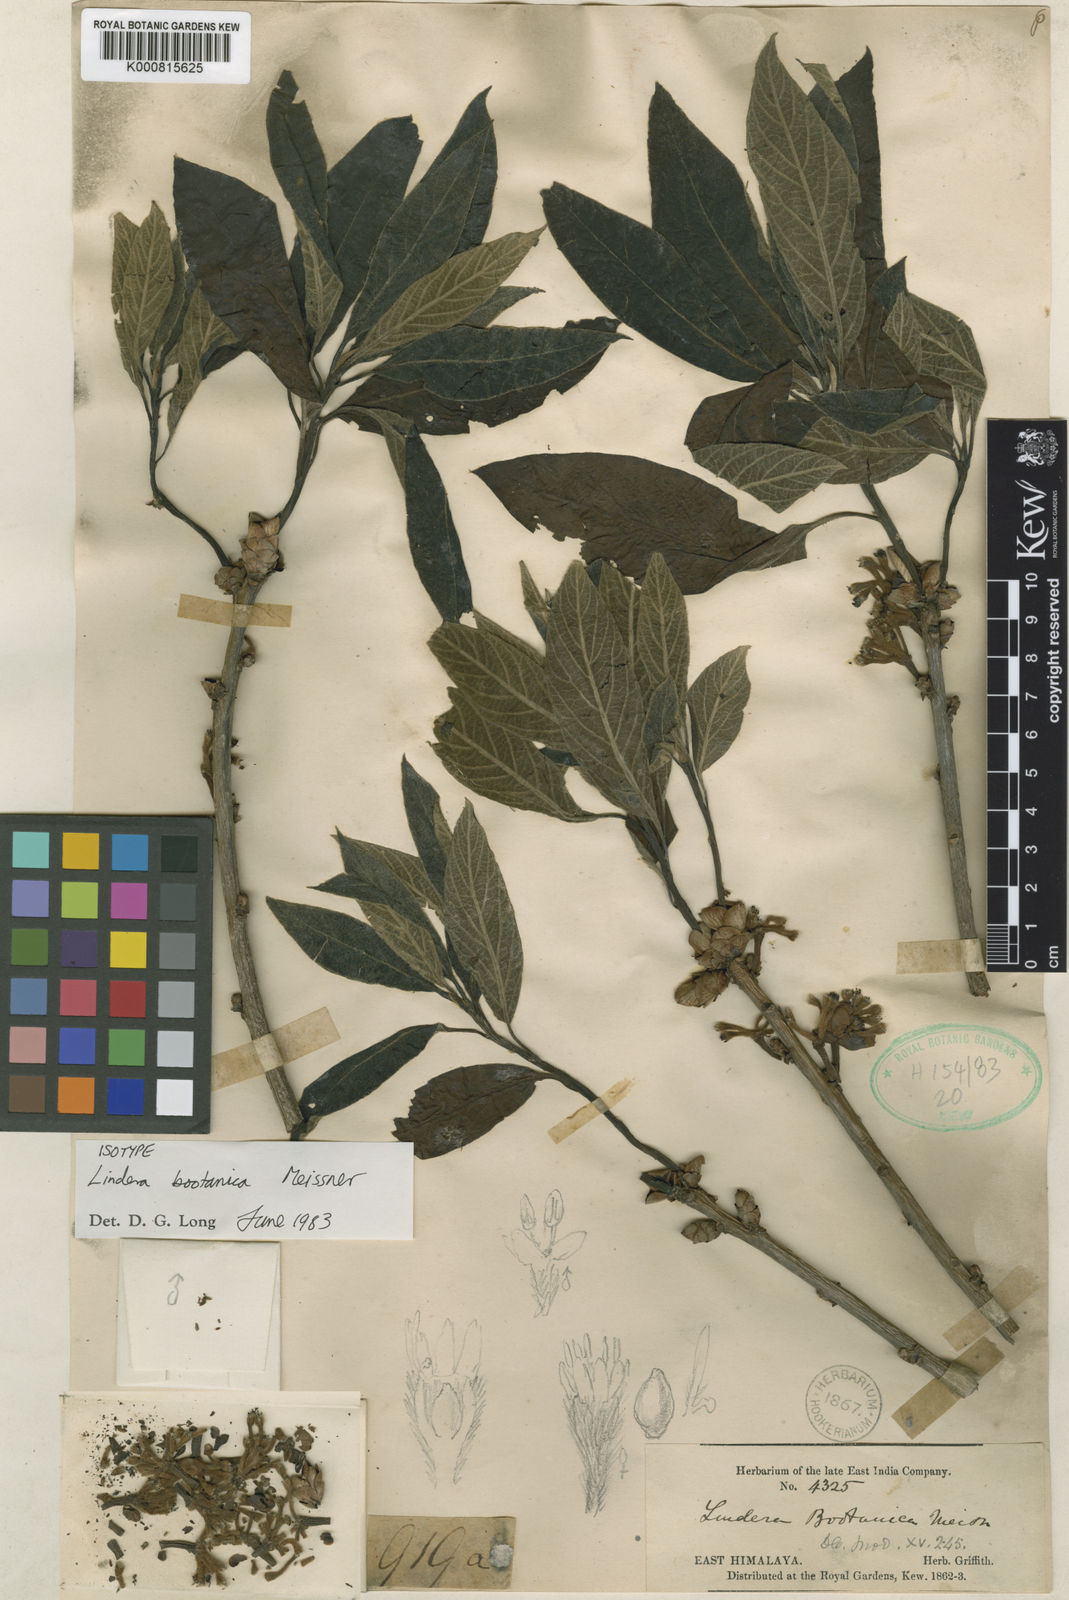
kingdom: Plantae
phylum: Tracheophyta
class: Magnoliopsida
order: Laurales
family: Lauraceae
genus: Lindera
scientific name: Lindera bootanica
